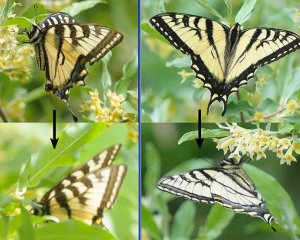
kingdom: Animalia
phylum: Arthropoda
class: Insecta
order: Lepidoptera
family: Papilionidae
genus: Pterourus
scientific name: Pterourus canadensis
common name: Canadian Tiger Swallowtail
